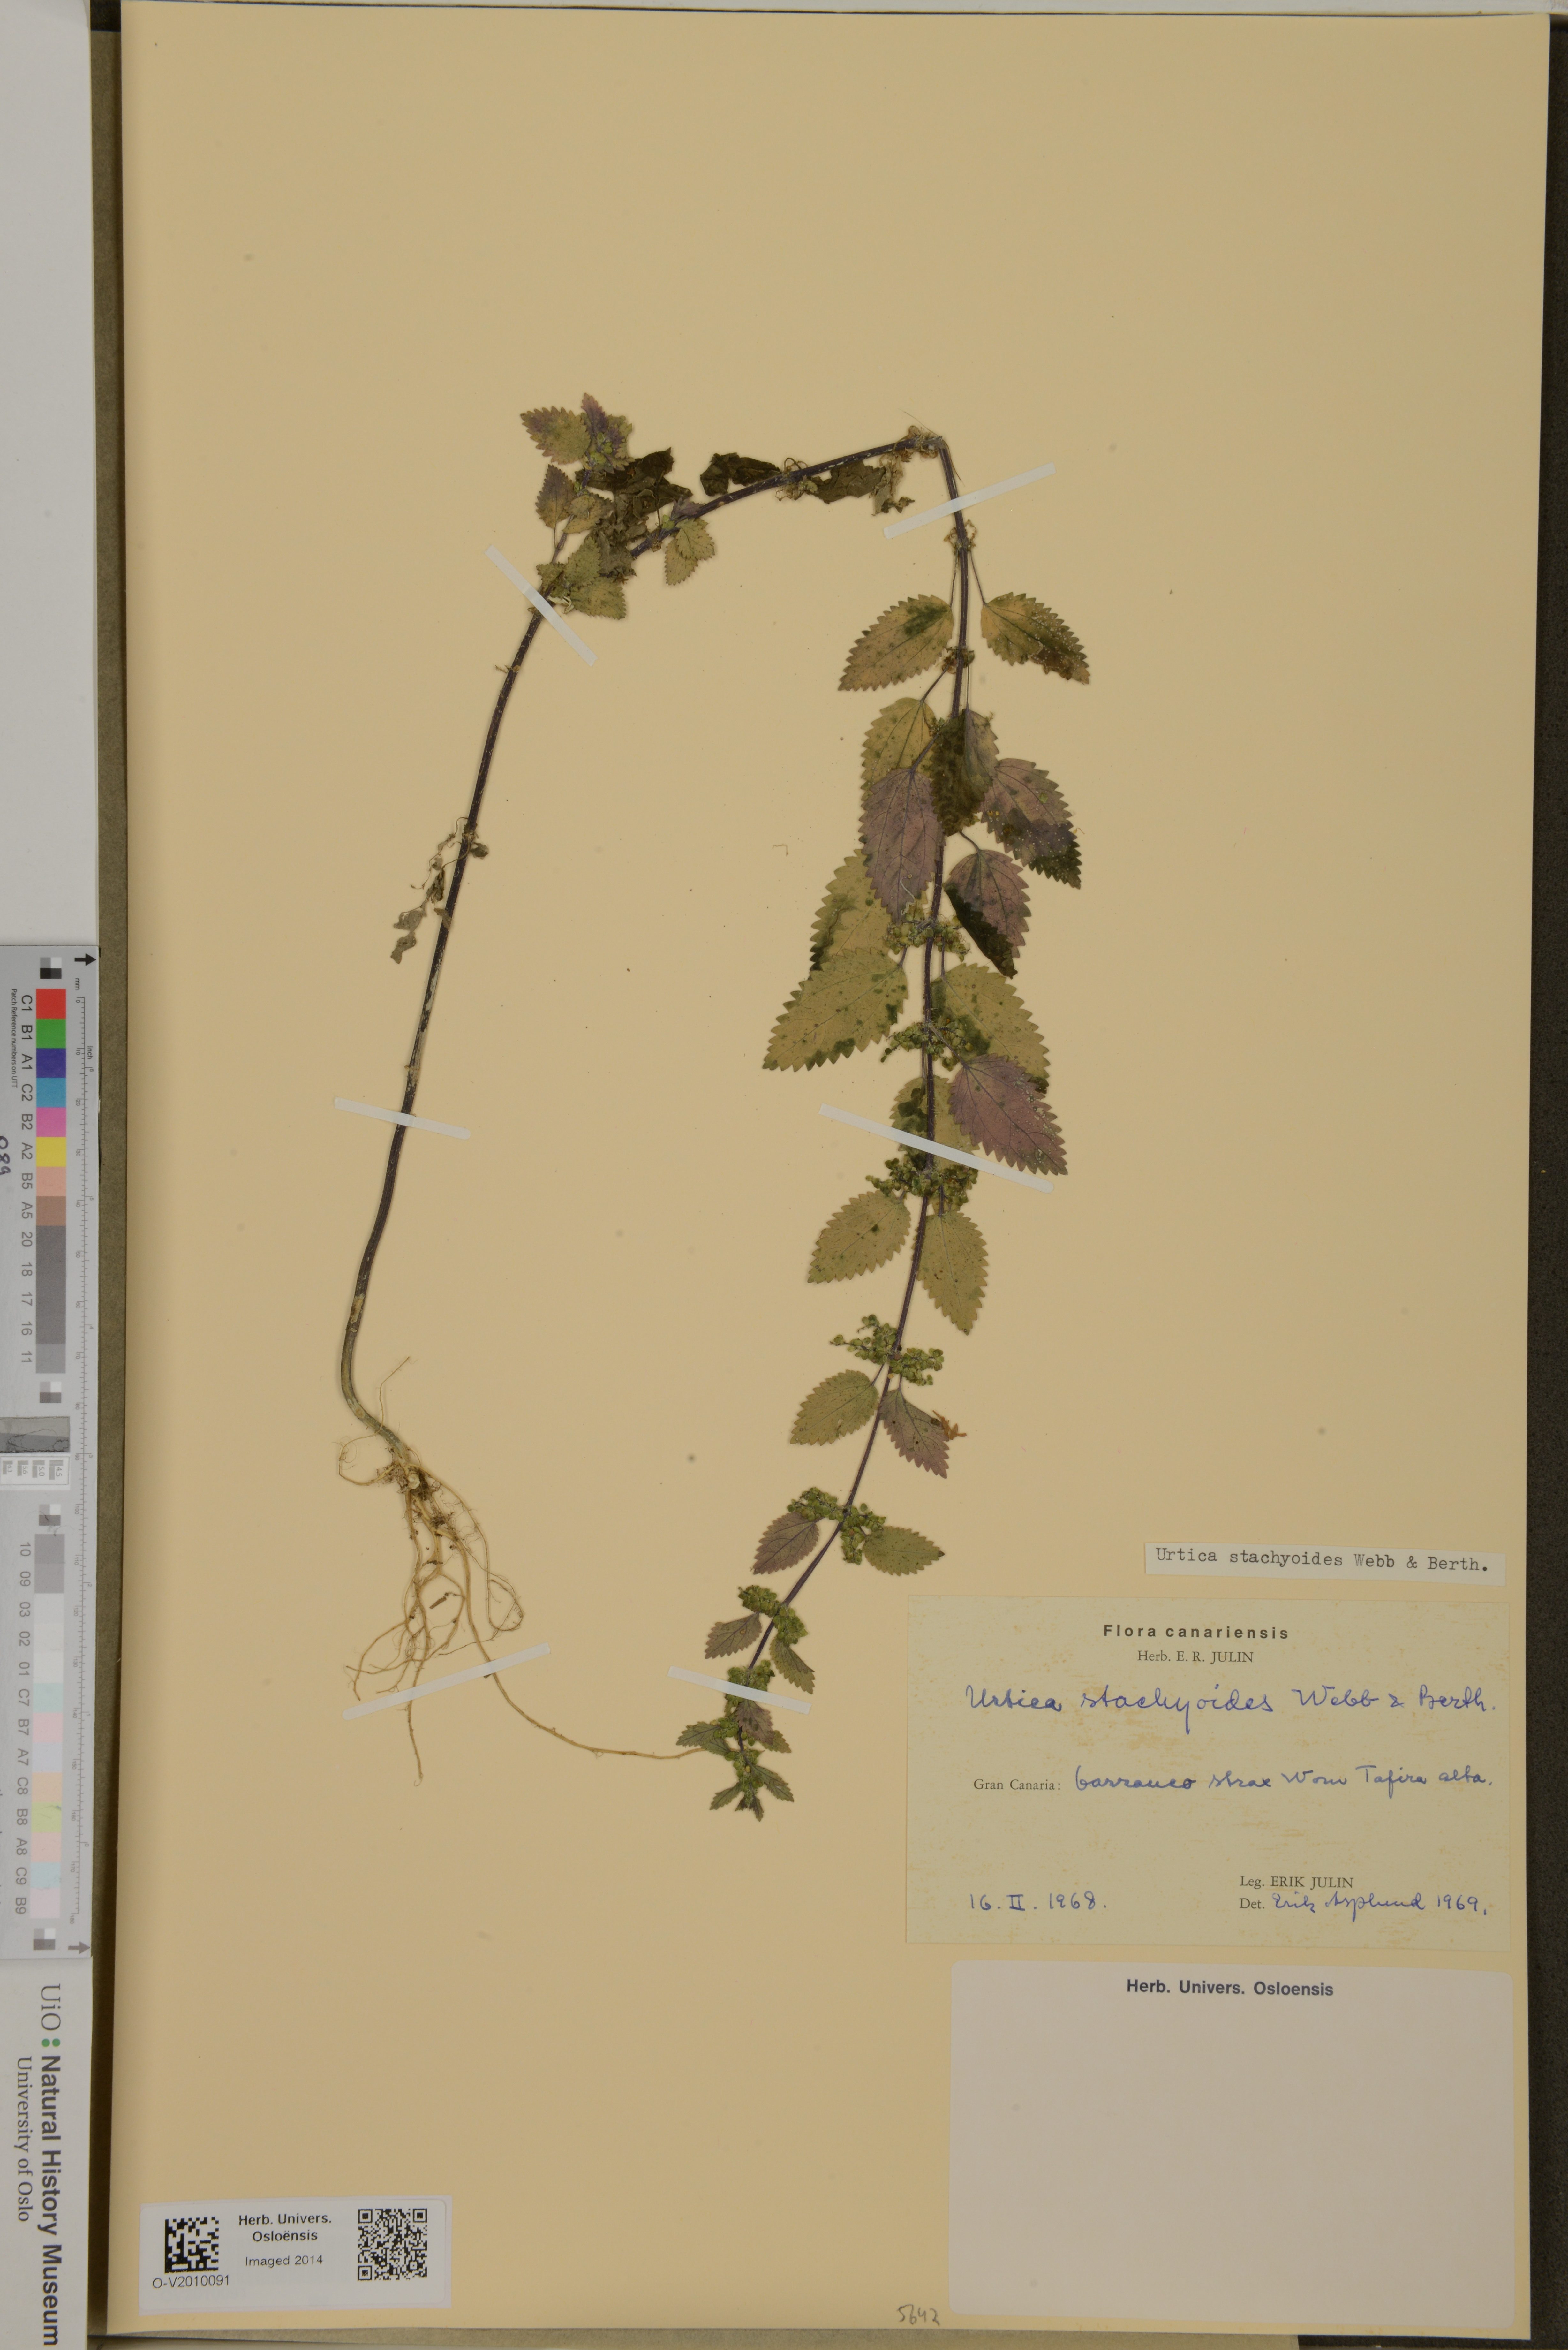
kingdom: Plantae
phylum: Tracheophyta
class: Magnoliopsida
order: Rosales
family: Urticaceae
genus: Urtica
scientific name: Urtica stachyoides
